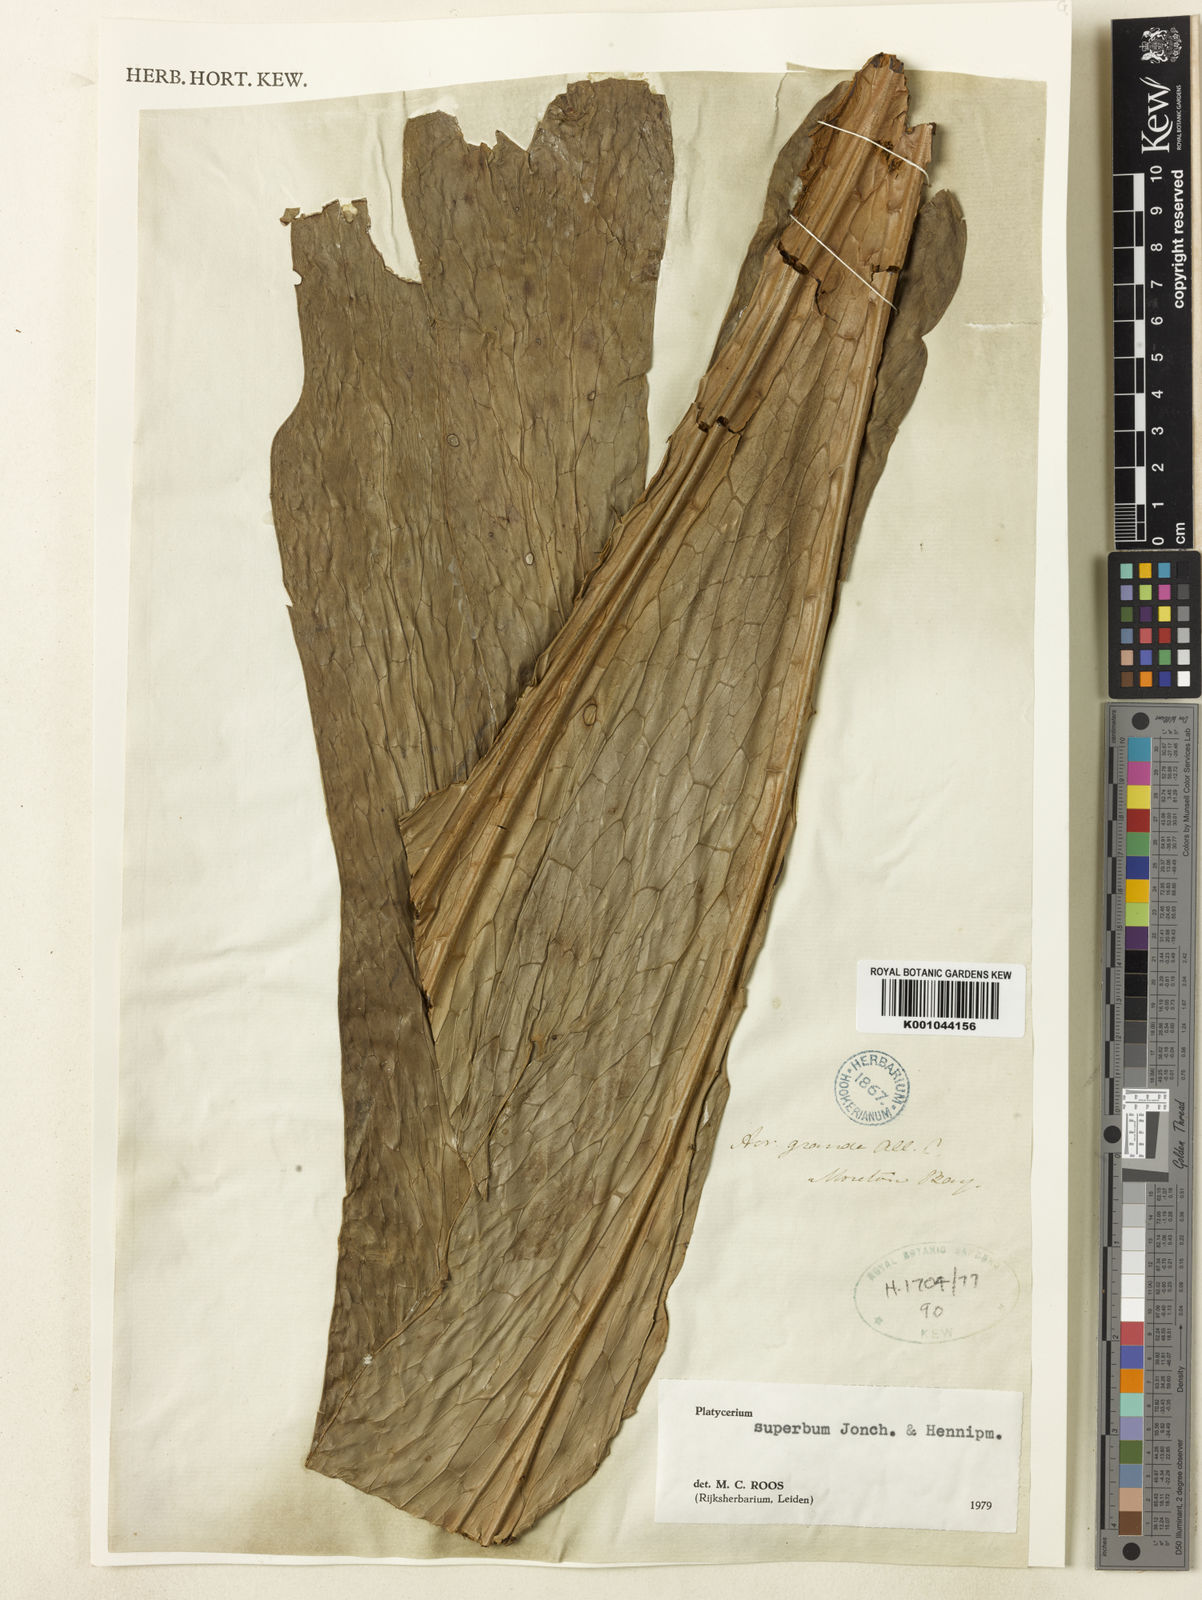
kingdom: Plantae
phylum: Tracheophyta
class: Polypodiopsida
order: Polypodiales
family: Polypodiaceae
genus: Platycerium
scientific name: Platycerium superbum
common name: Staghorn fern
